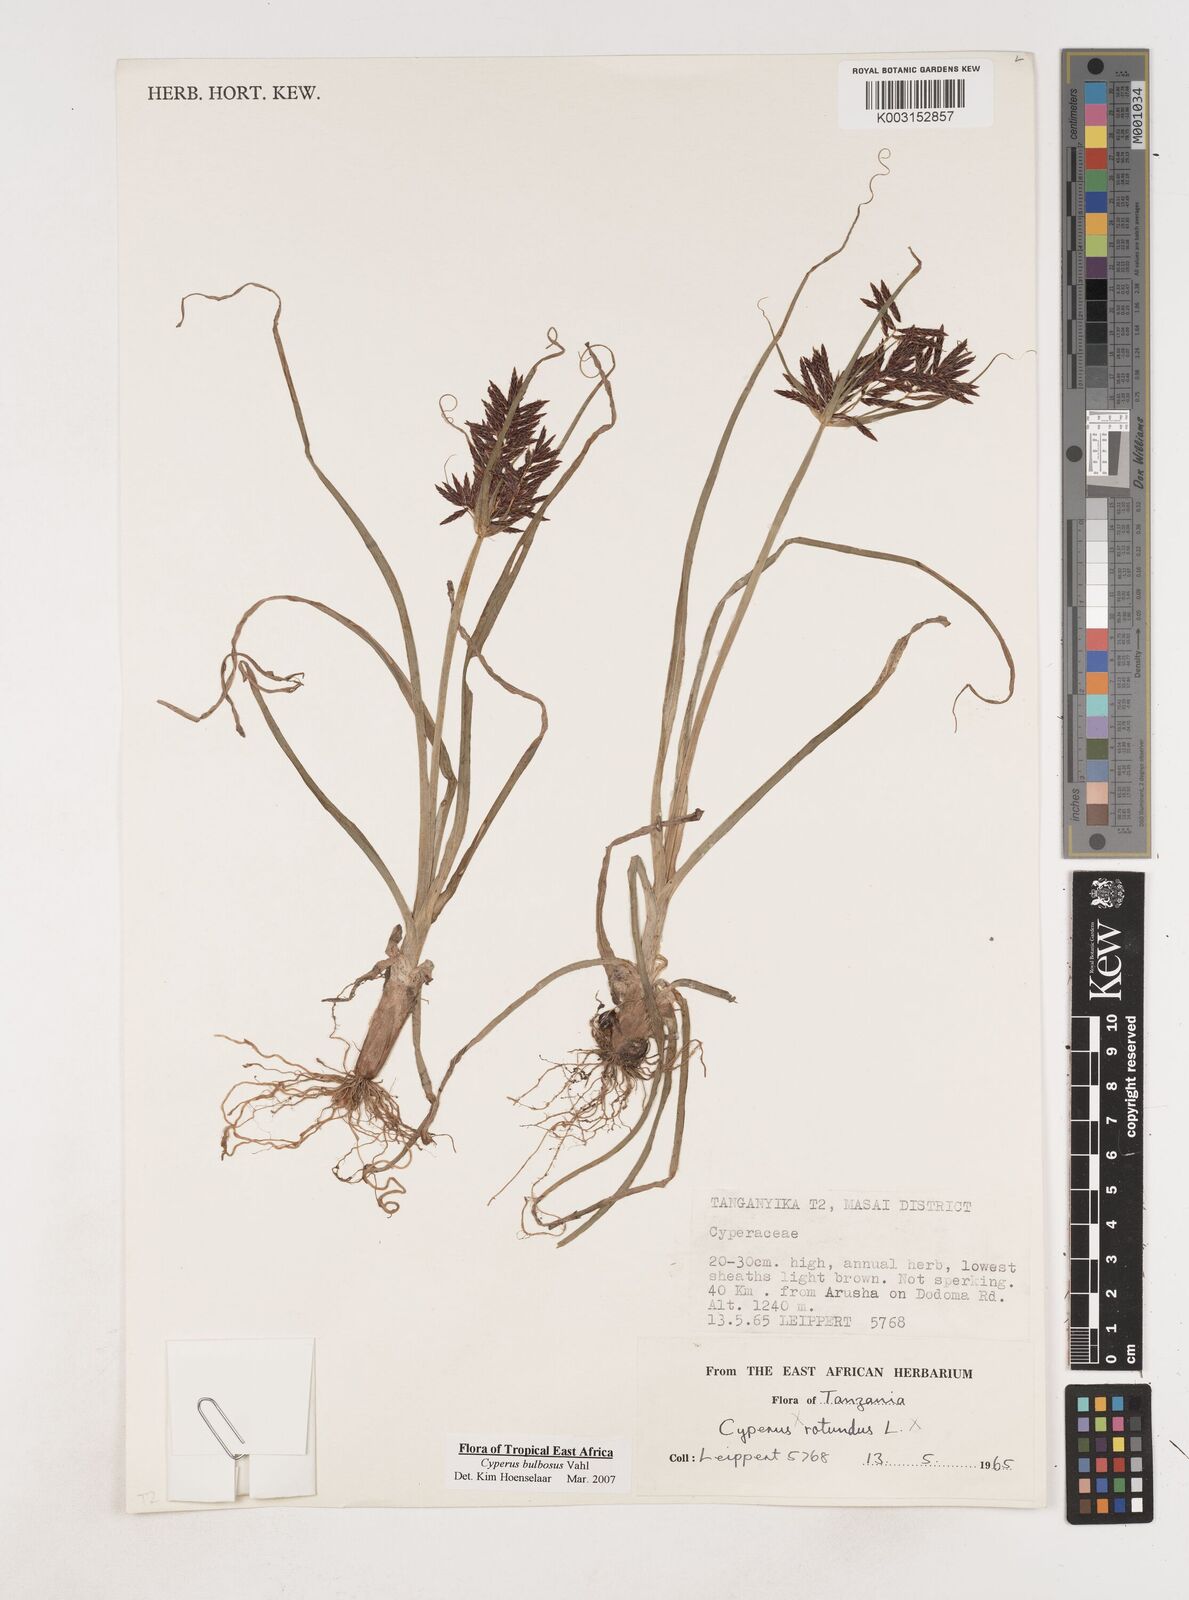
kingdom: Plantae
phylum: Tracheophyta
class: Liliopsida
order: Poales
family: Cyperaceae
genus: Cyperus
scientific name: Cyperus bulbosus
